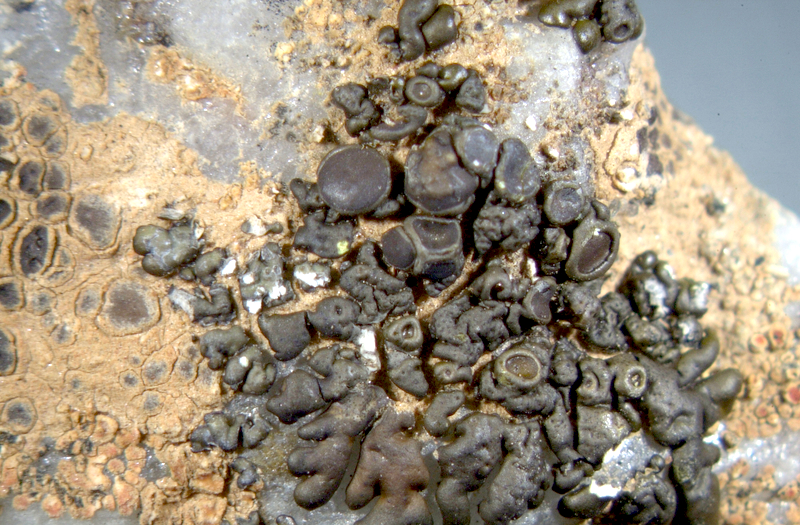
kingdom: Fungi
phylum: Ascomycota
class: Lecanoromycetes
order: Lecanorales
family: Parmeliaceae
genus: Neofuscelia
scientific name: Neofuscelia
